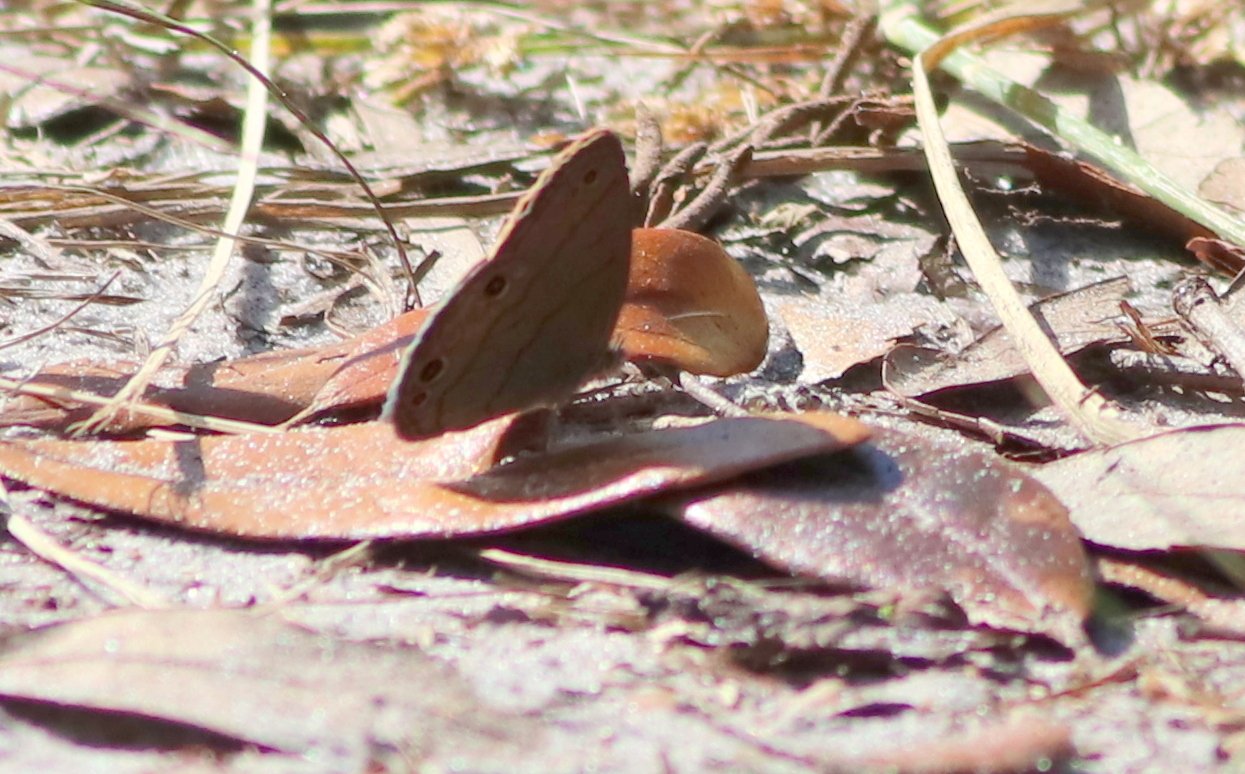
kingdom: Animalia
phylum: Arthropoda
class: Insecta
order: Lepidoptera
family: Nymphalidae
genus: Hermeuptychia
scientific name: Hermeuptychia hermes
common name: Carolina Satyr
